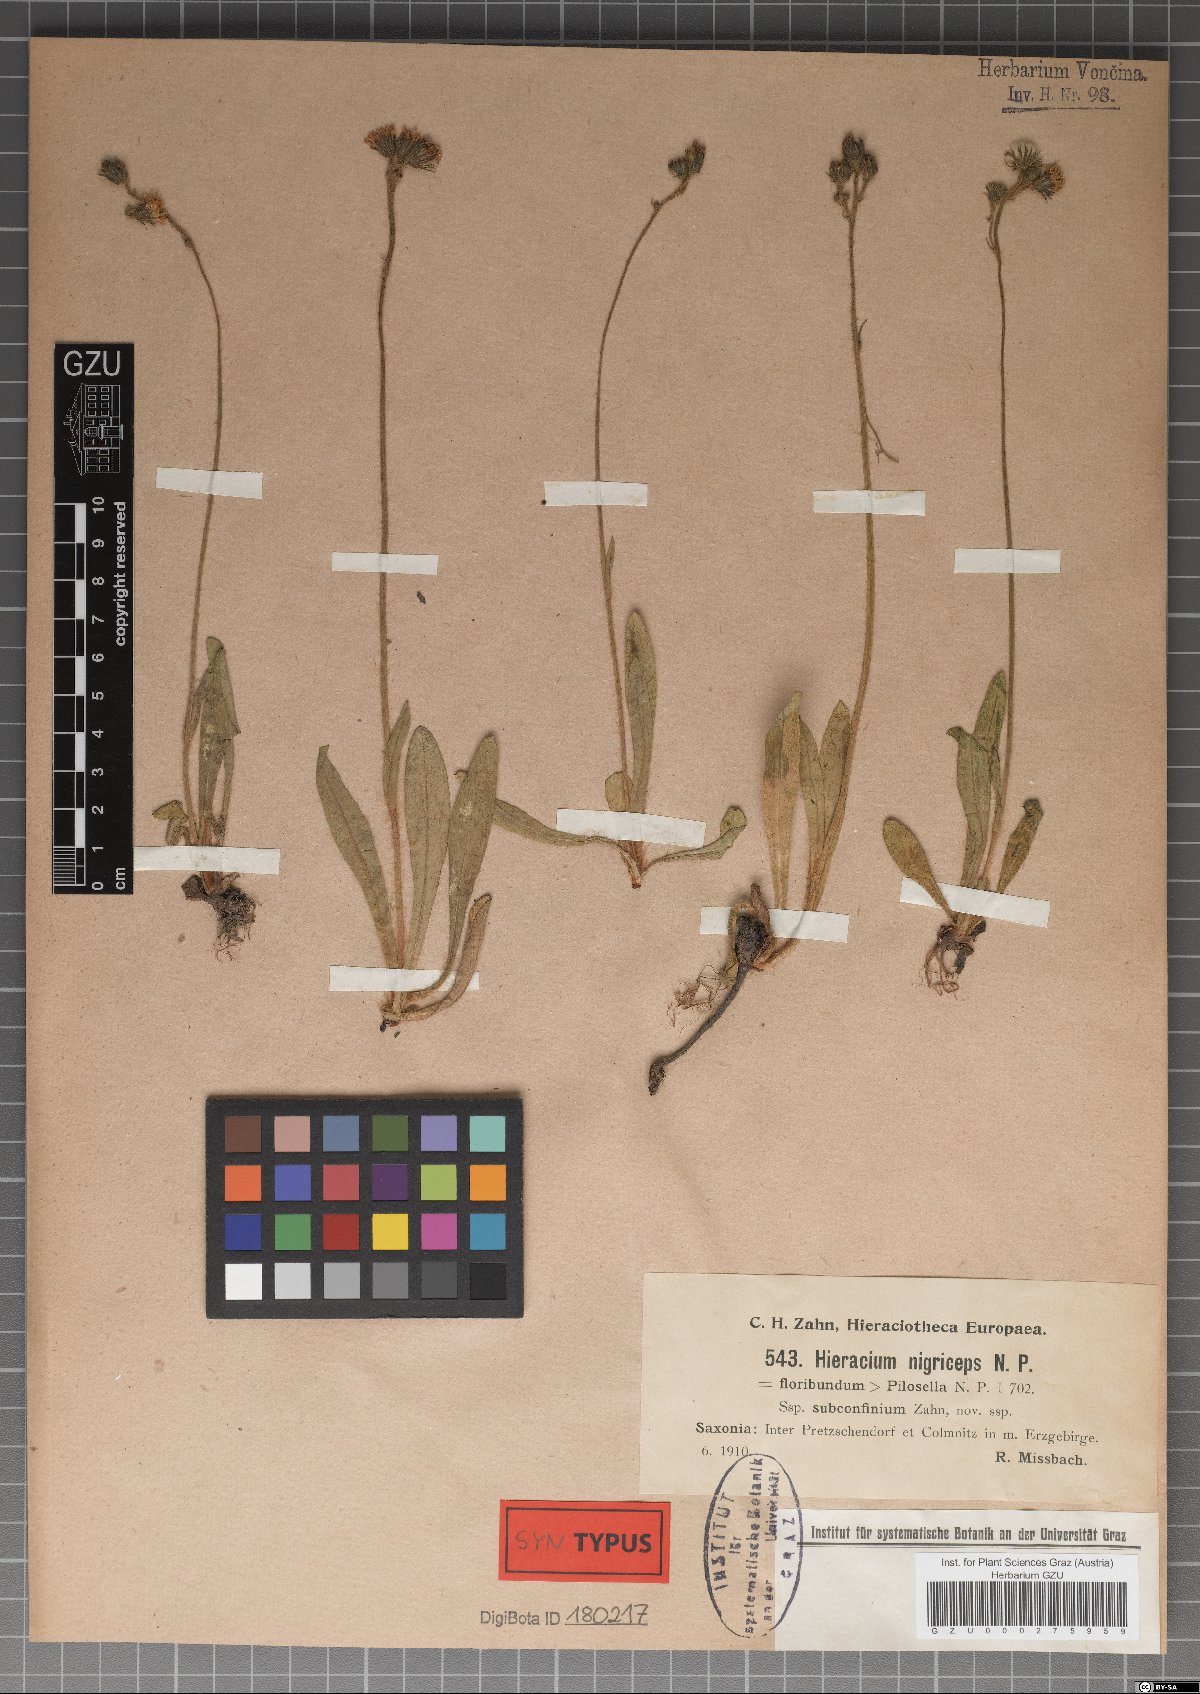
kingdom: Plantae
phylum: Tracheophyta
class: Magnoliopsida
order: Asterales
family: Asteraceae
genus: Hieracium
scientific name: Hieracium nigriceps
